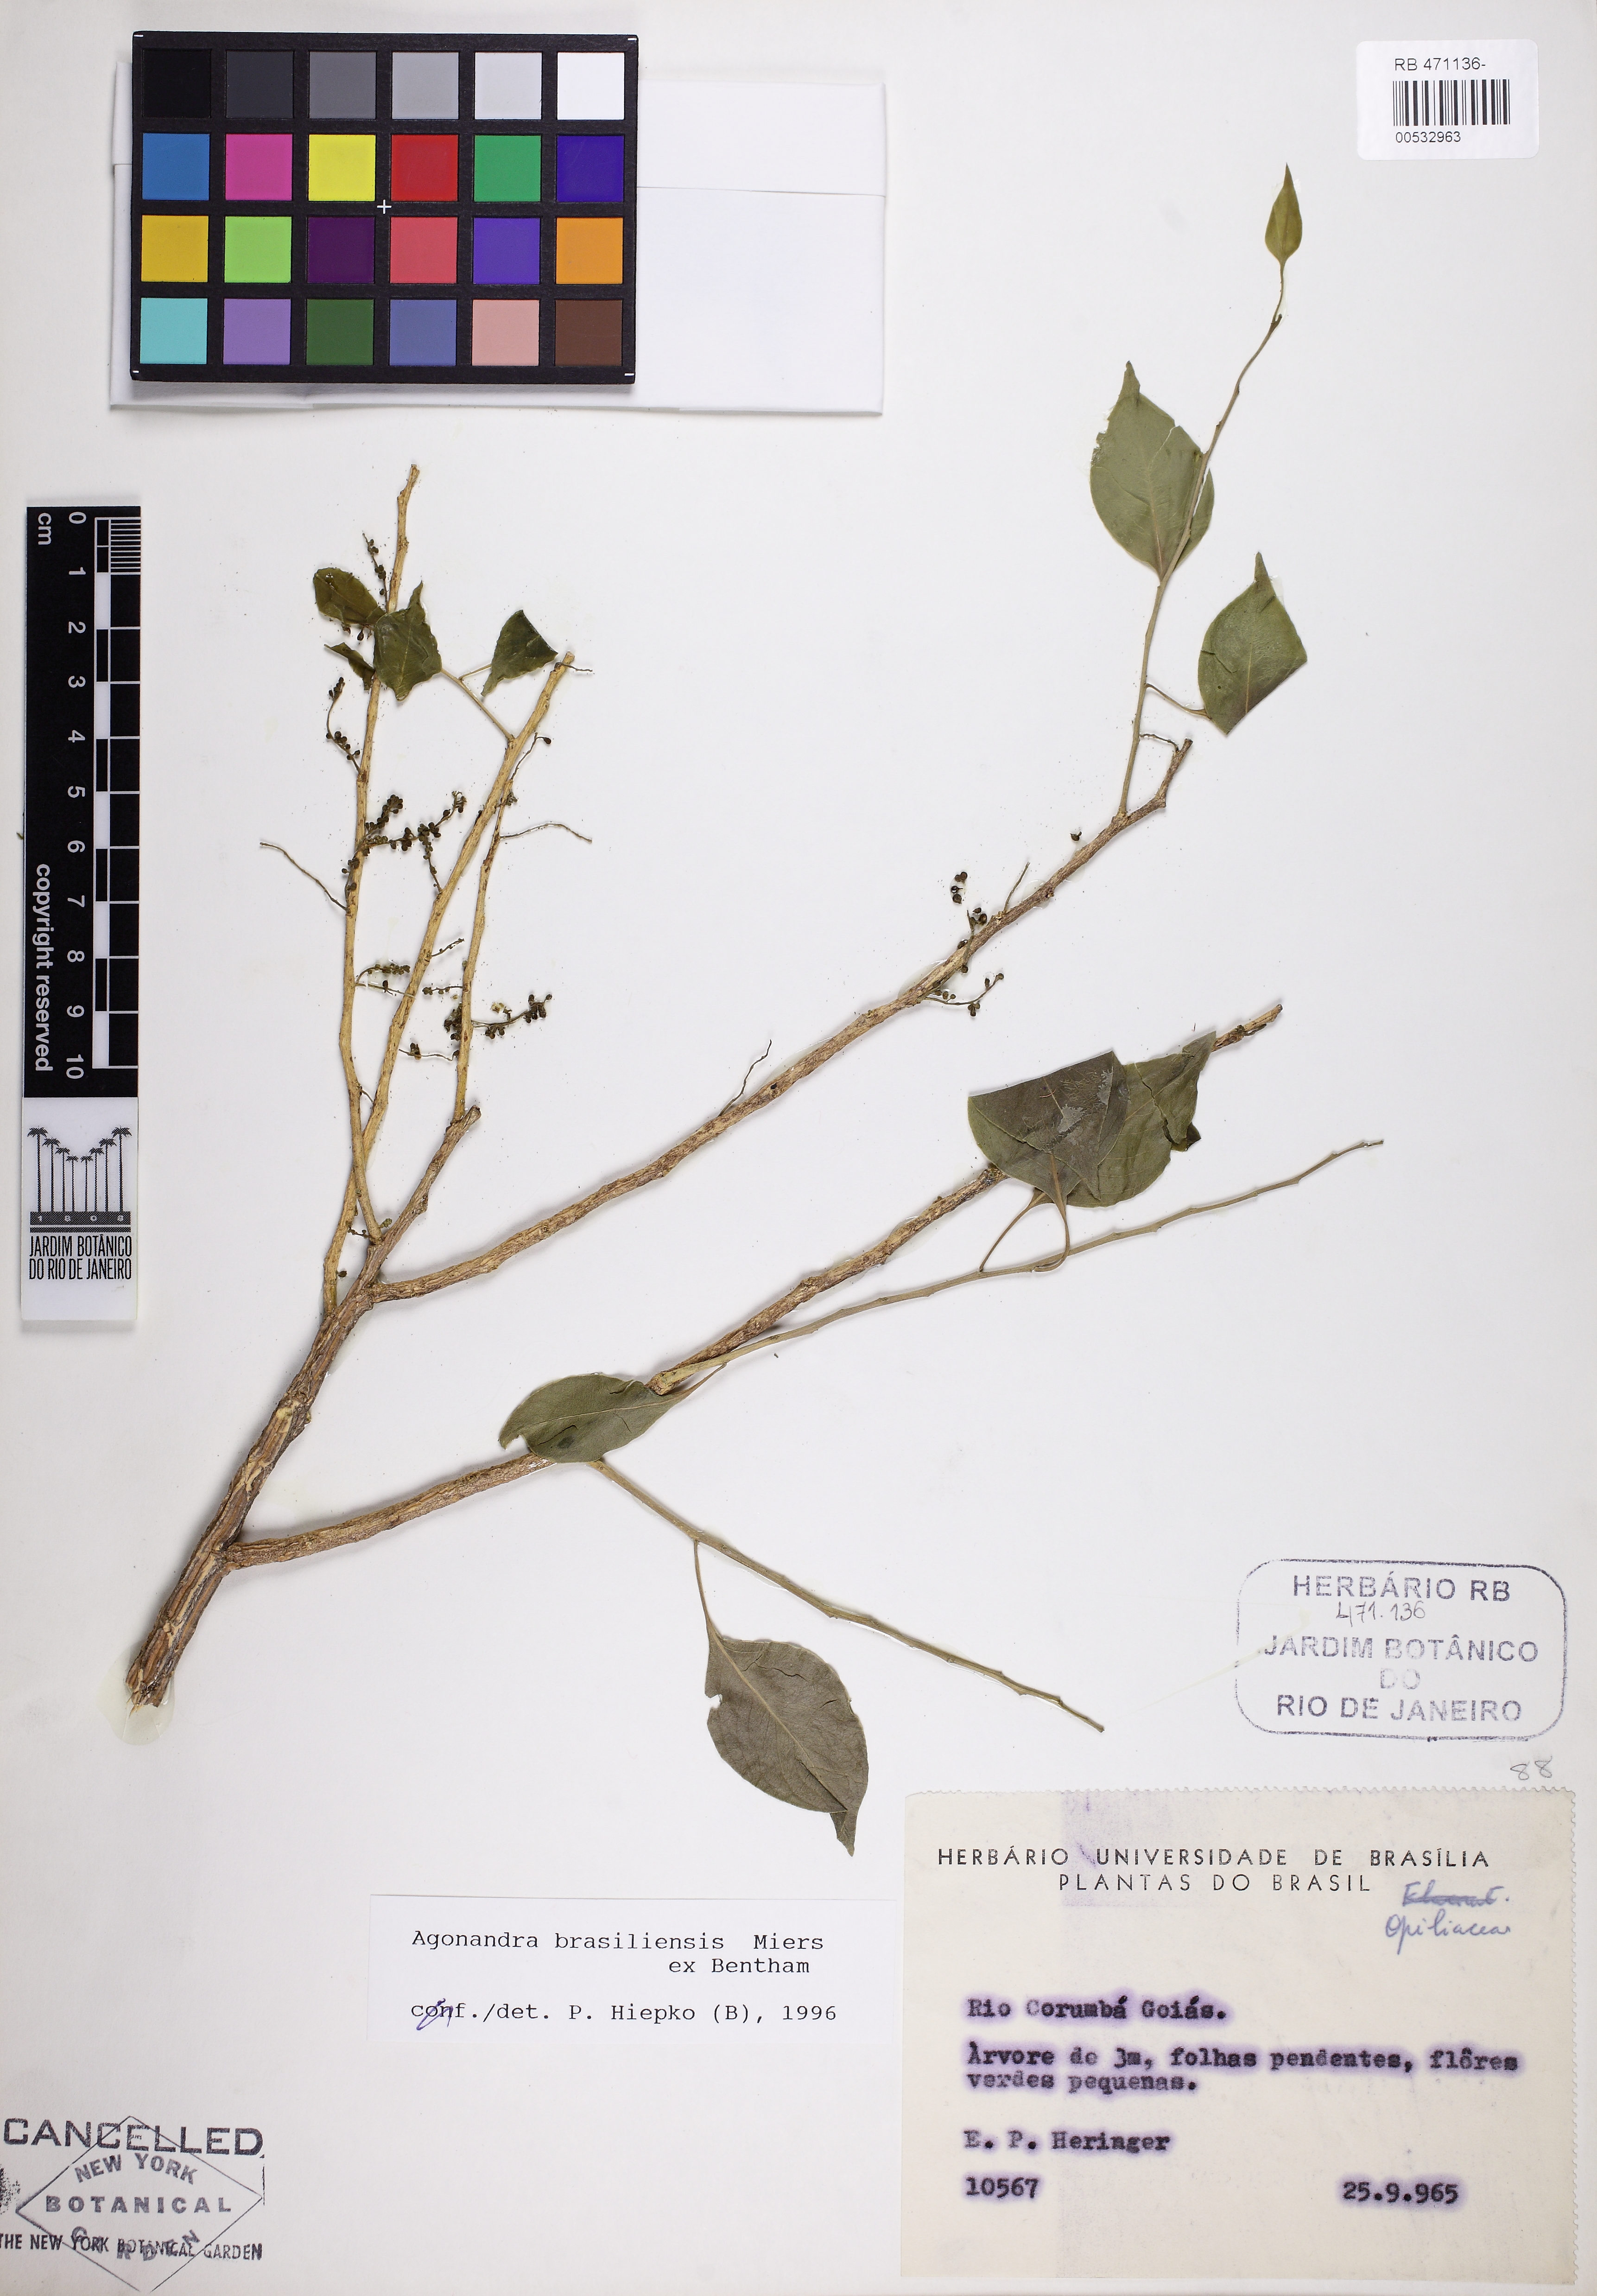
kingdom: Plantae
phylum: Tracheophyta
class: Magnoliopsida
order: Santalales
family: Opiliaceae
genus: Agonandra
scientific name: Agonandra brasiliensis
